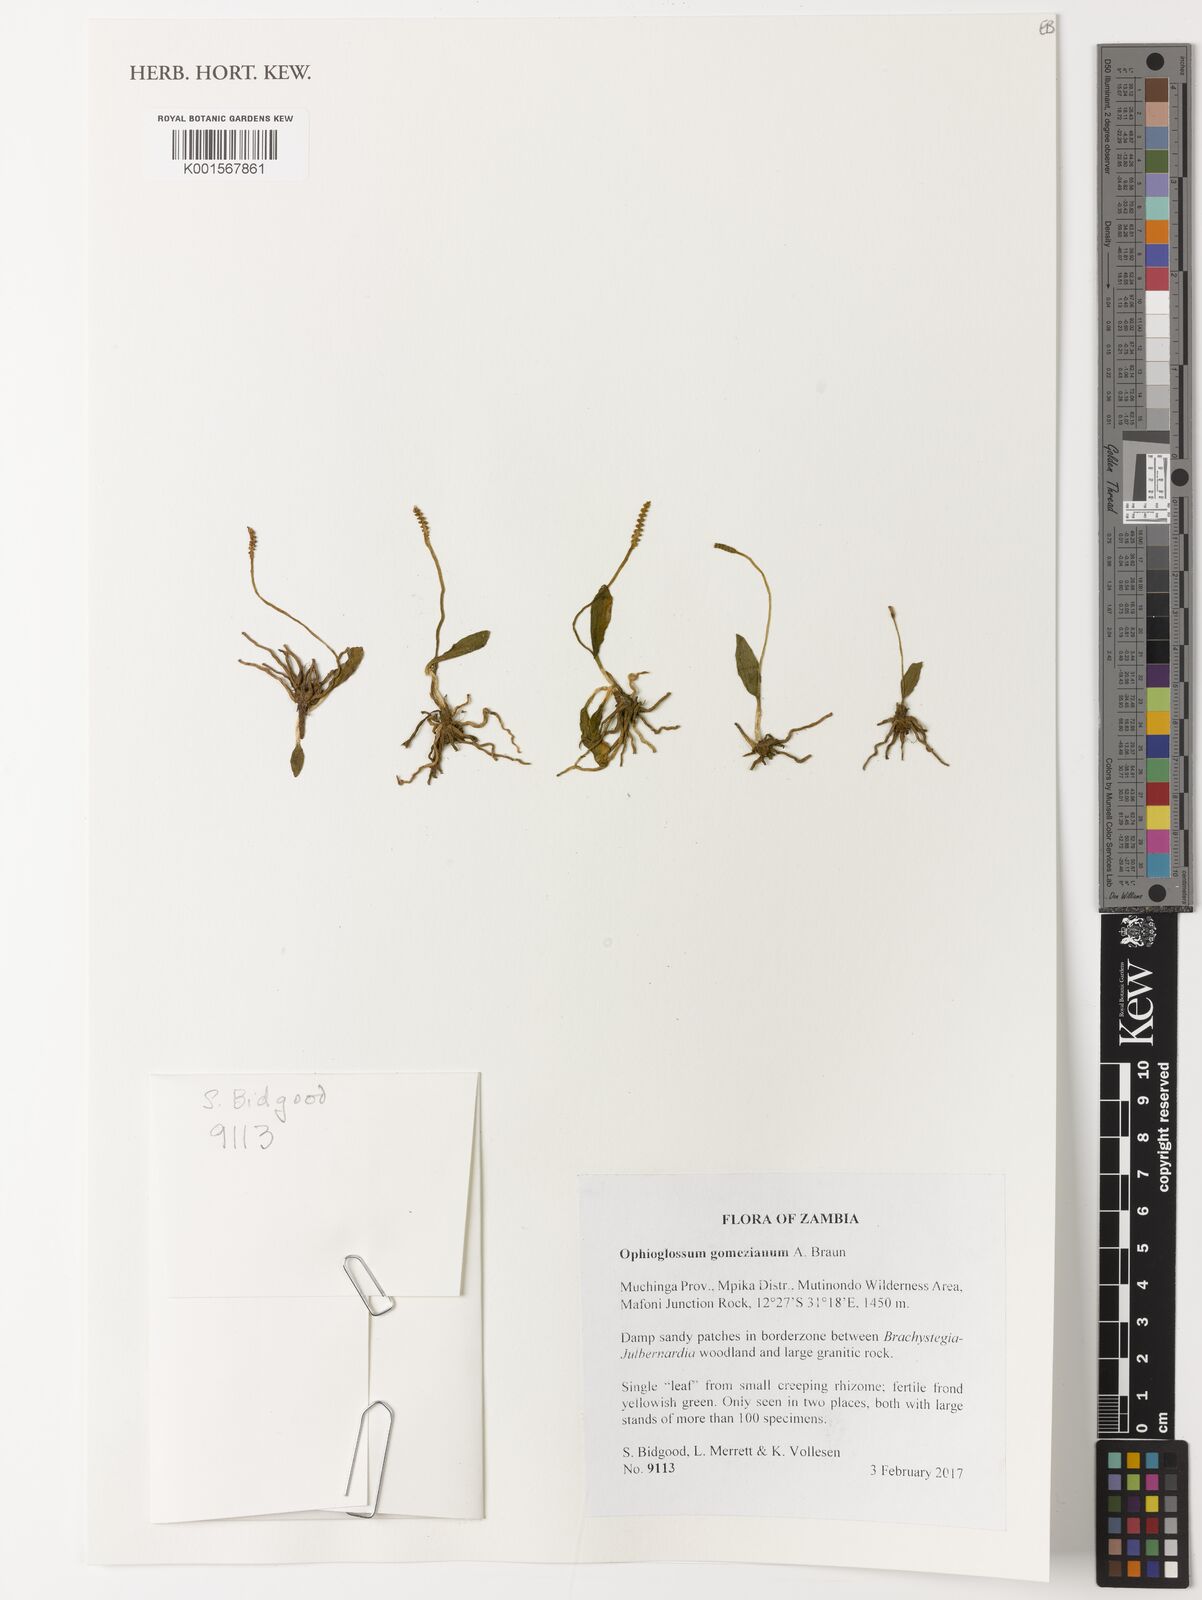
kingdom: Plantae
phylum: Tracheophyta
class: Polypodiopsida
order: Ophioglossales
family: Ophioglossaceae
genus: Ophioglossum
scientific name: Ophioglossum gomezianum
